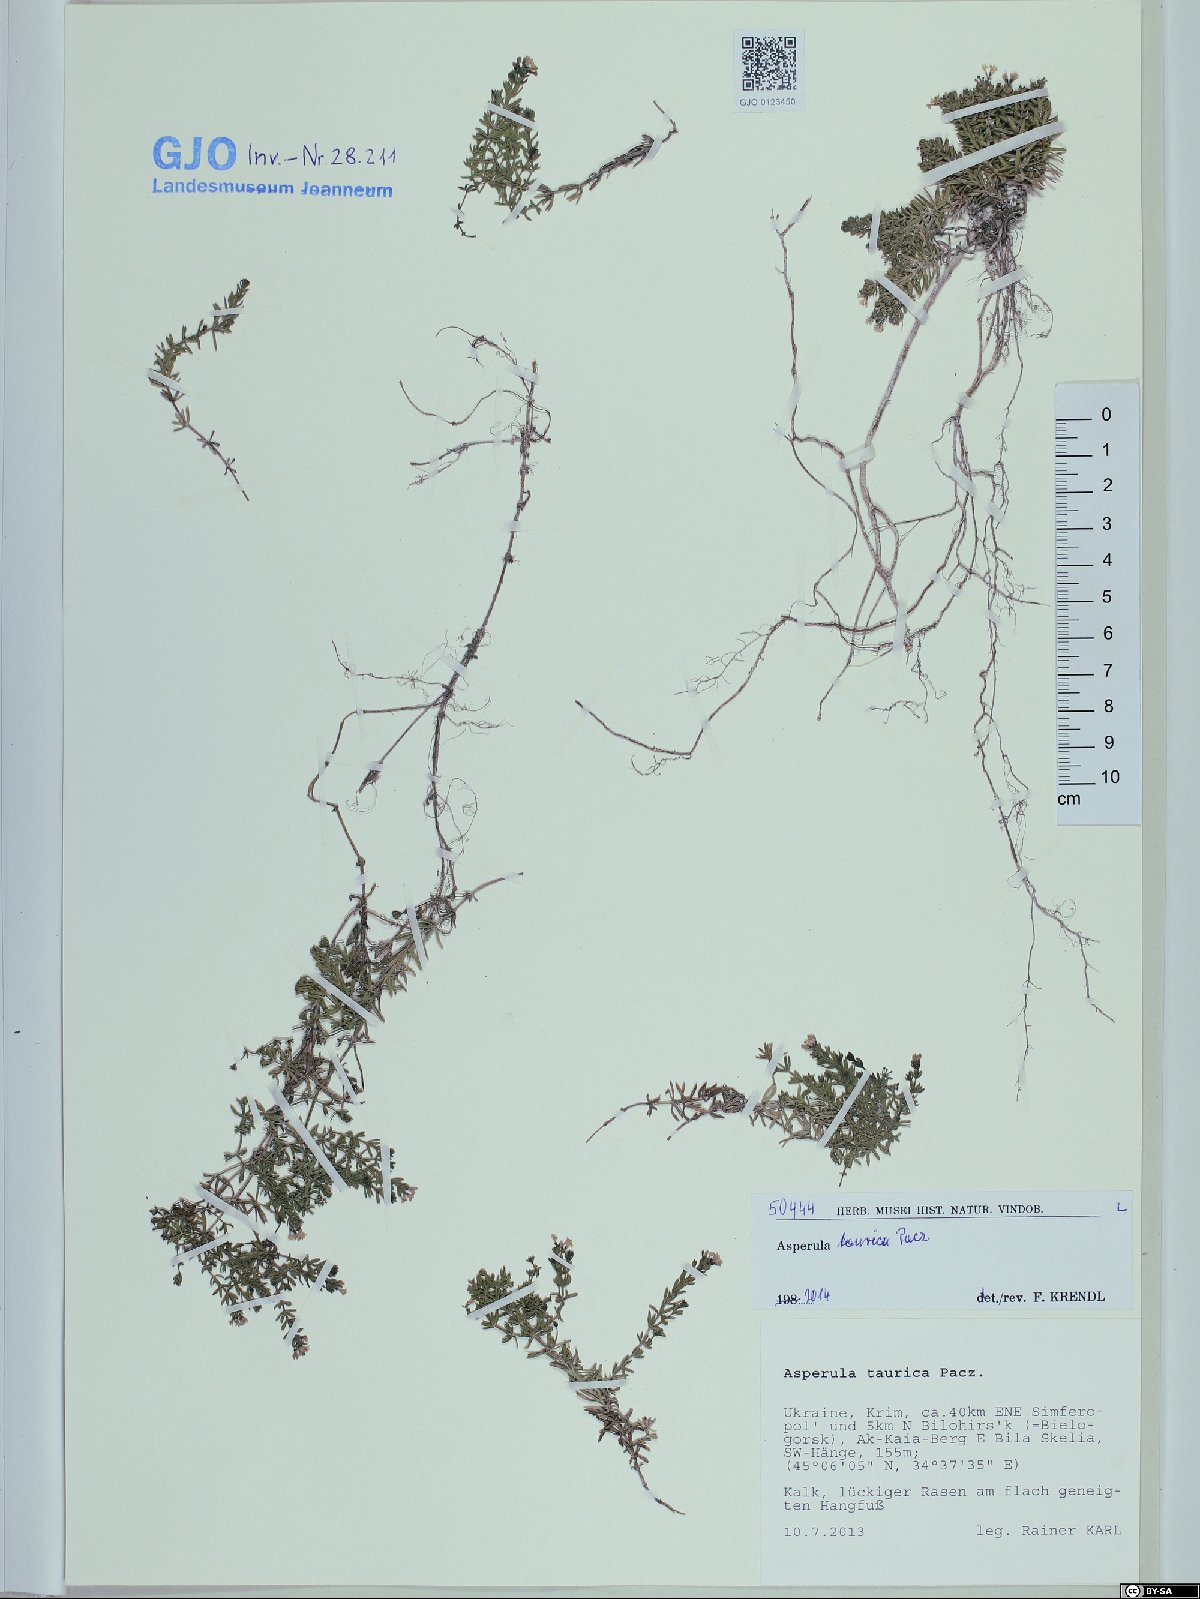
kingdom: Plantae
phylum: Tracheophyta
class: Magnoliopsida
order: Gentianales
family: Rubiaceae
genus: Hexaphylla
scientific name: Hexaphylla cretacea
